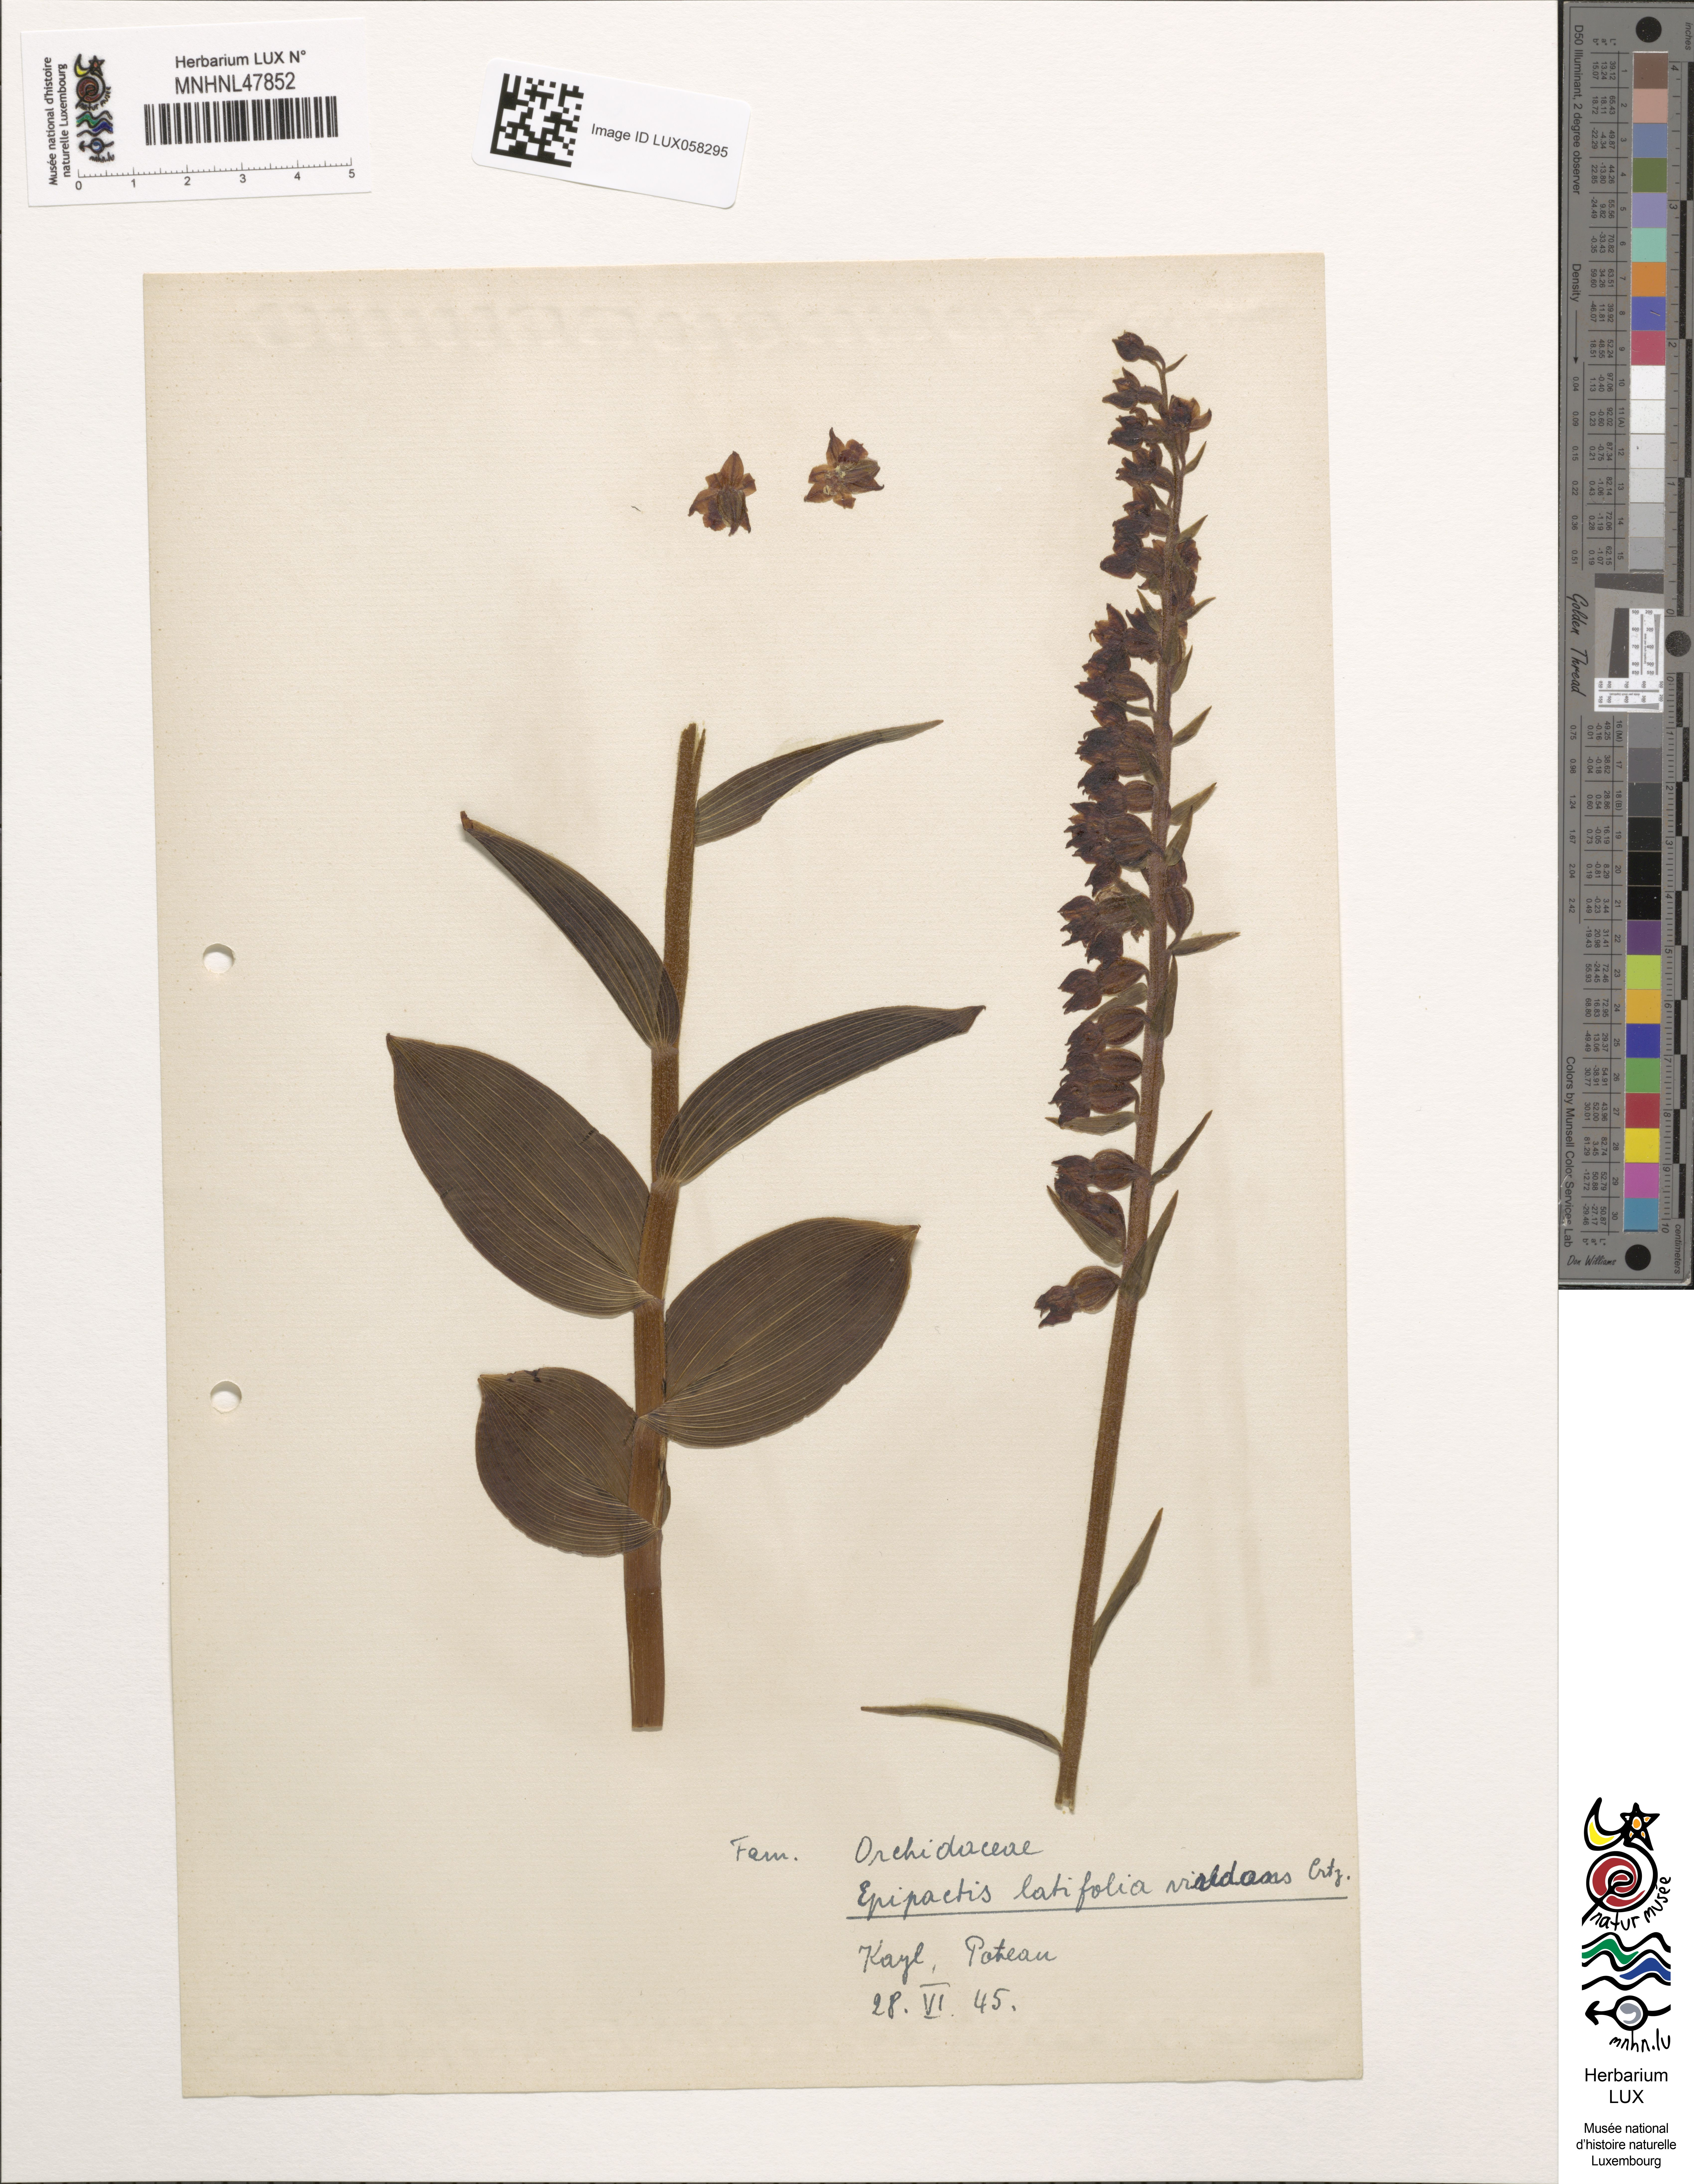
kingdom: Plantae
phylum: Tracheophyta
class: Liliopsida
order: Asparagales
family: Orchidaceae
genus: Epipactis
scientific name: Epipactis atrorubens
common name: Dark-red helleborine
